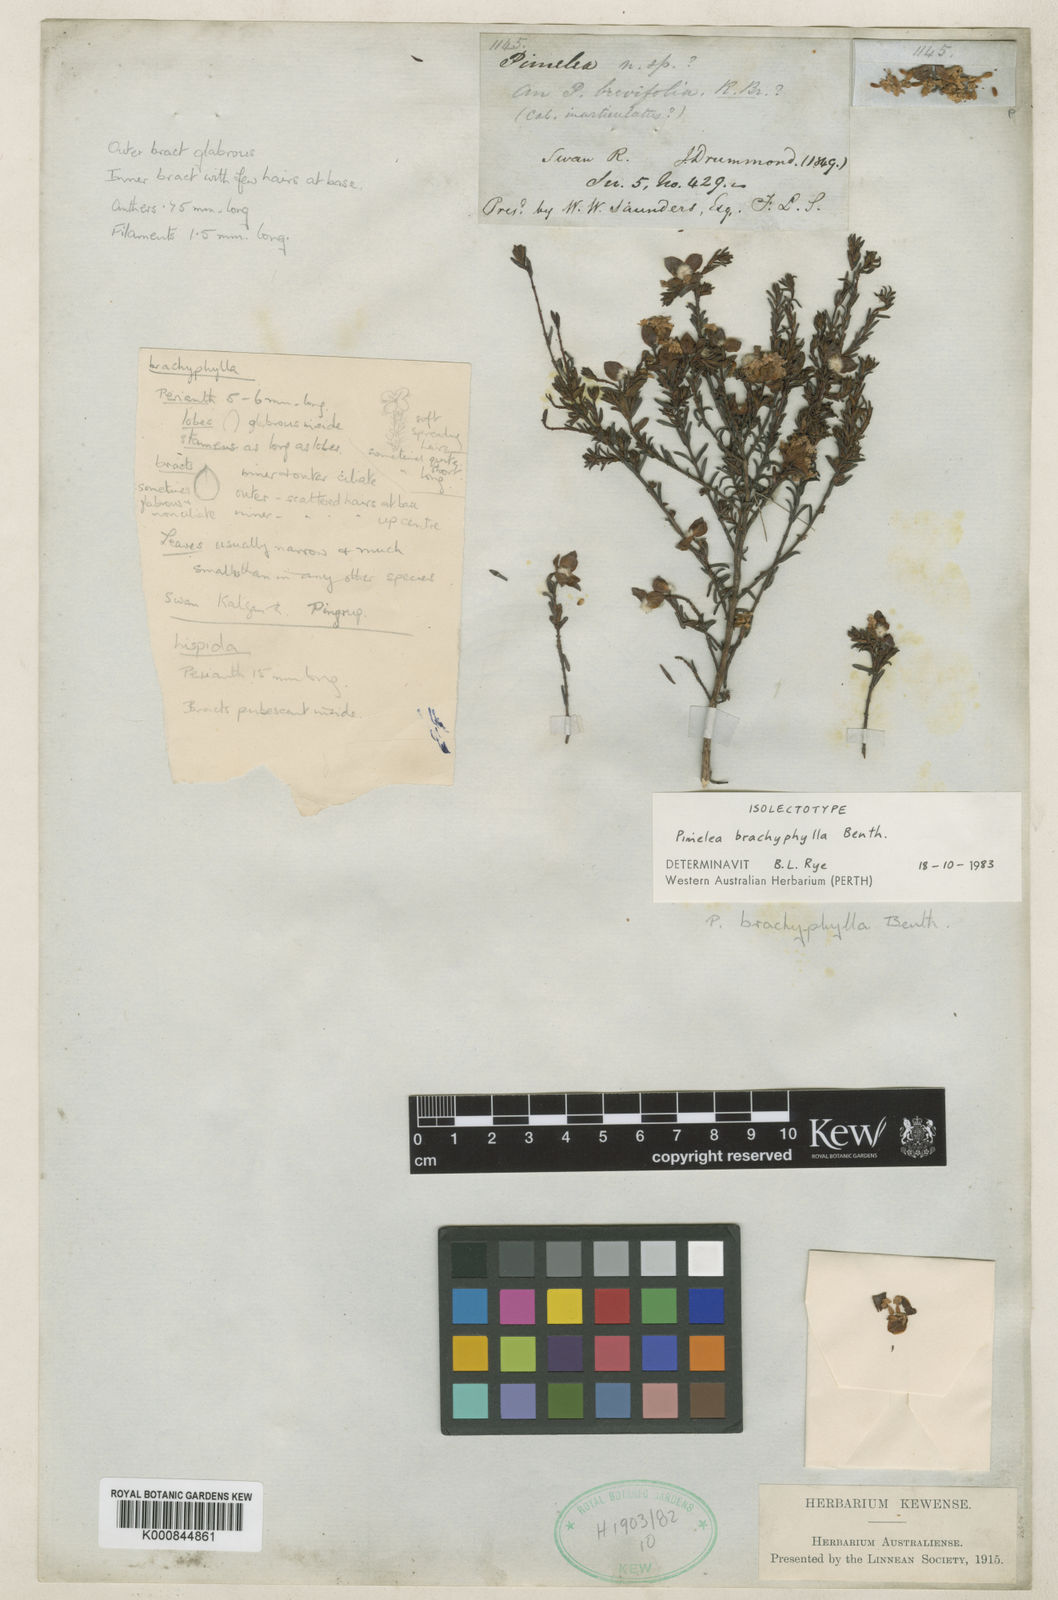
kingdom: Plantae
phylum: Tracheophyta
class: Magnoliopsida
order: Malvales
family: Thymelaeaceae
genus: Pimelea
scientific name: Pimelea brachyphylla
